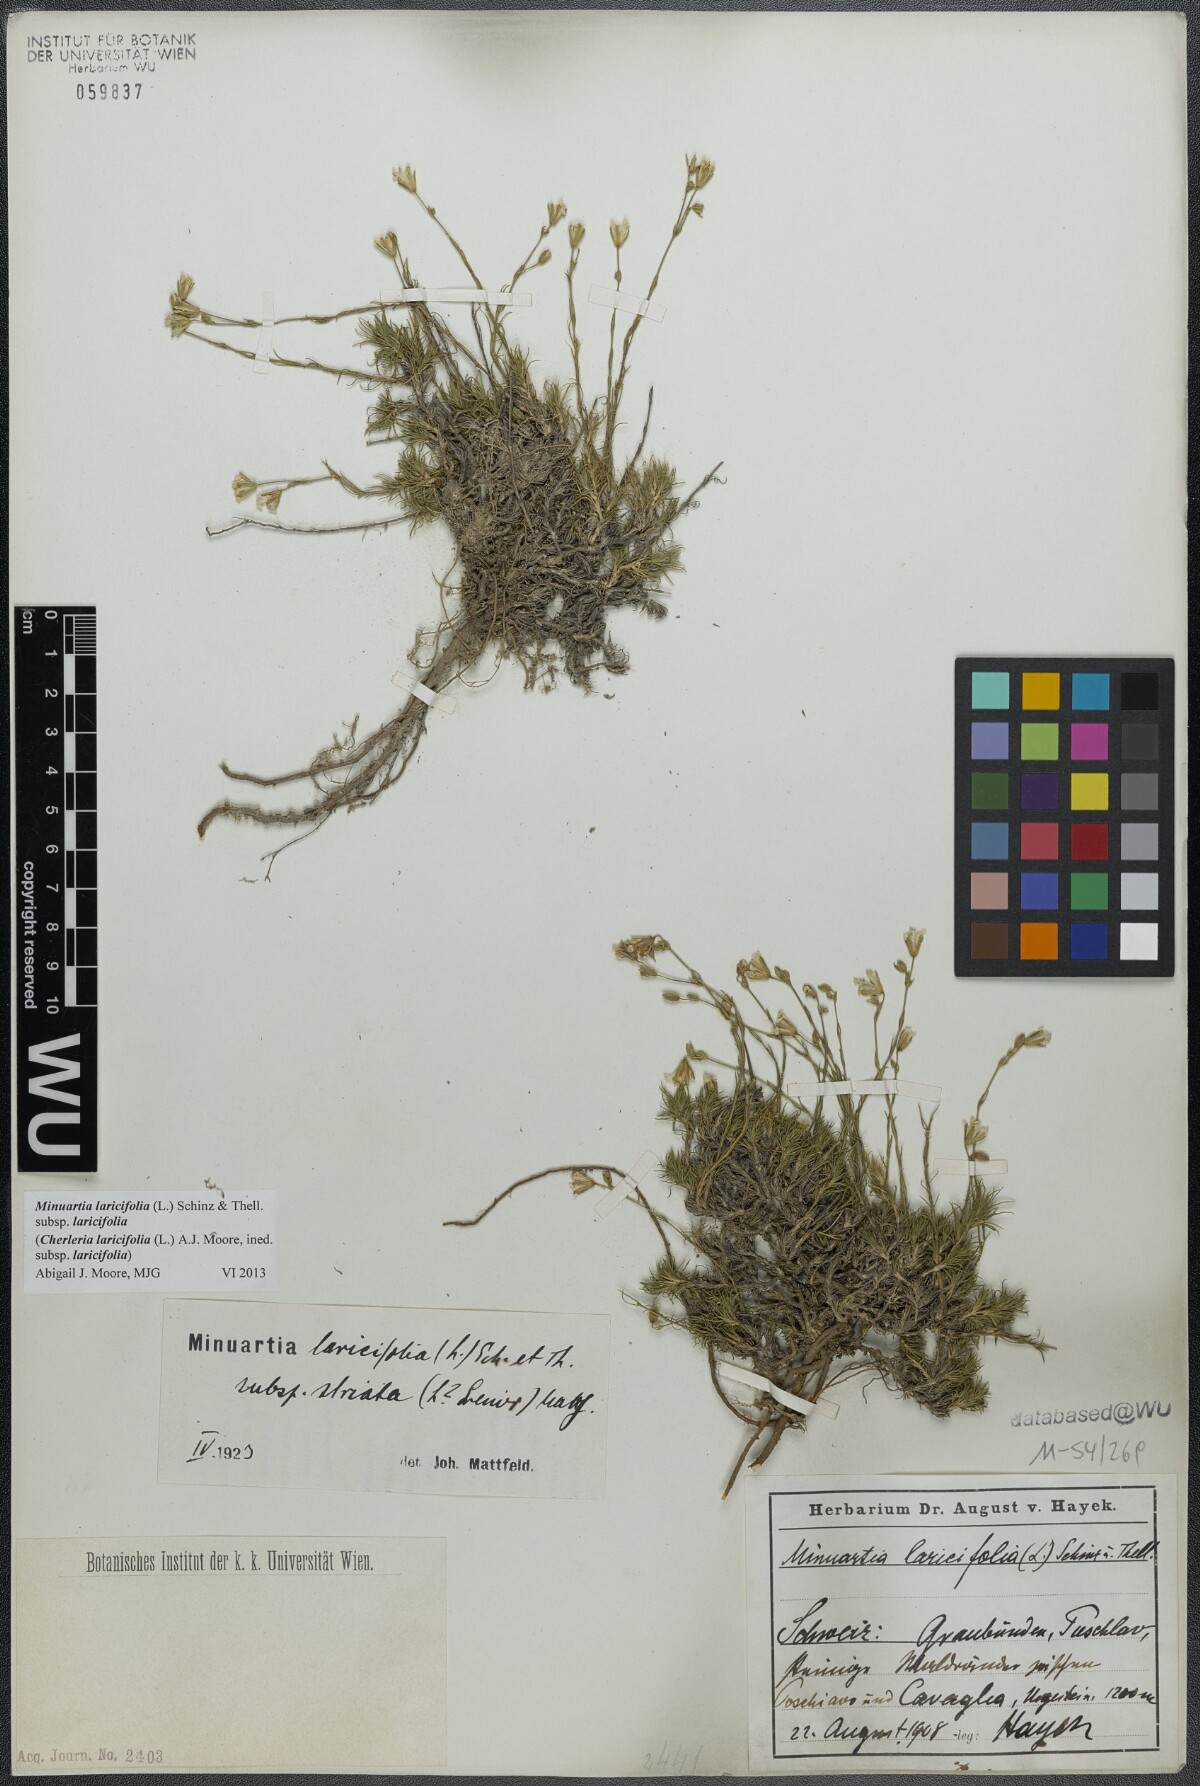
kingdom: Plantae
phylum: Tracheophyta
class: Magnoliopsida
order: Caryophyllales
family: Caryophyllaceae
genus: Cherleria
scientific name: Cherleria laricifolia
